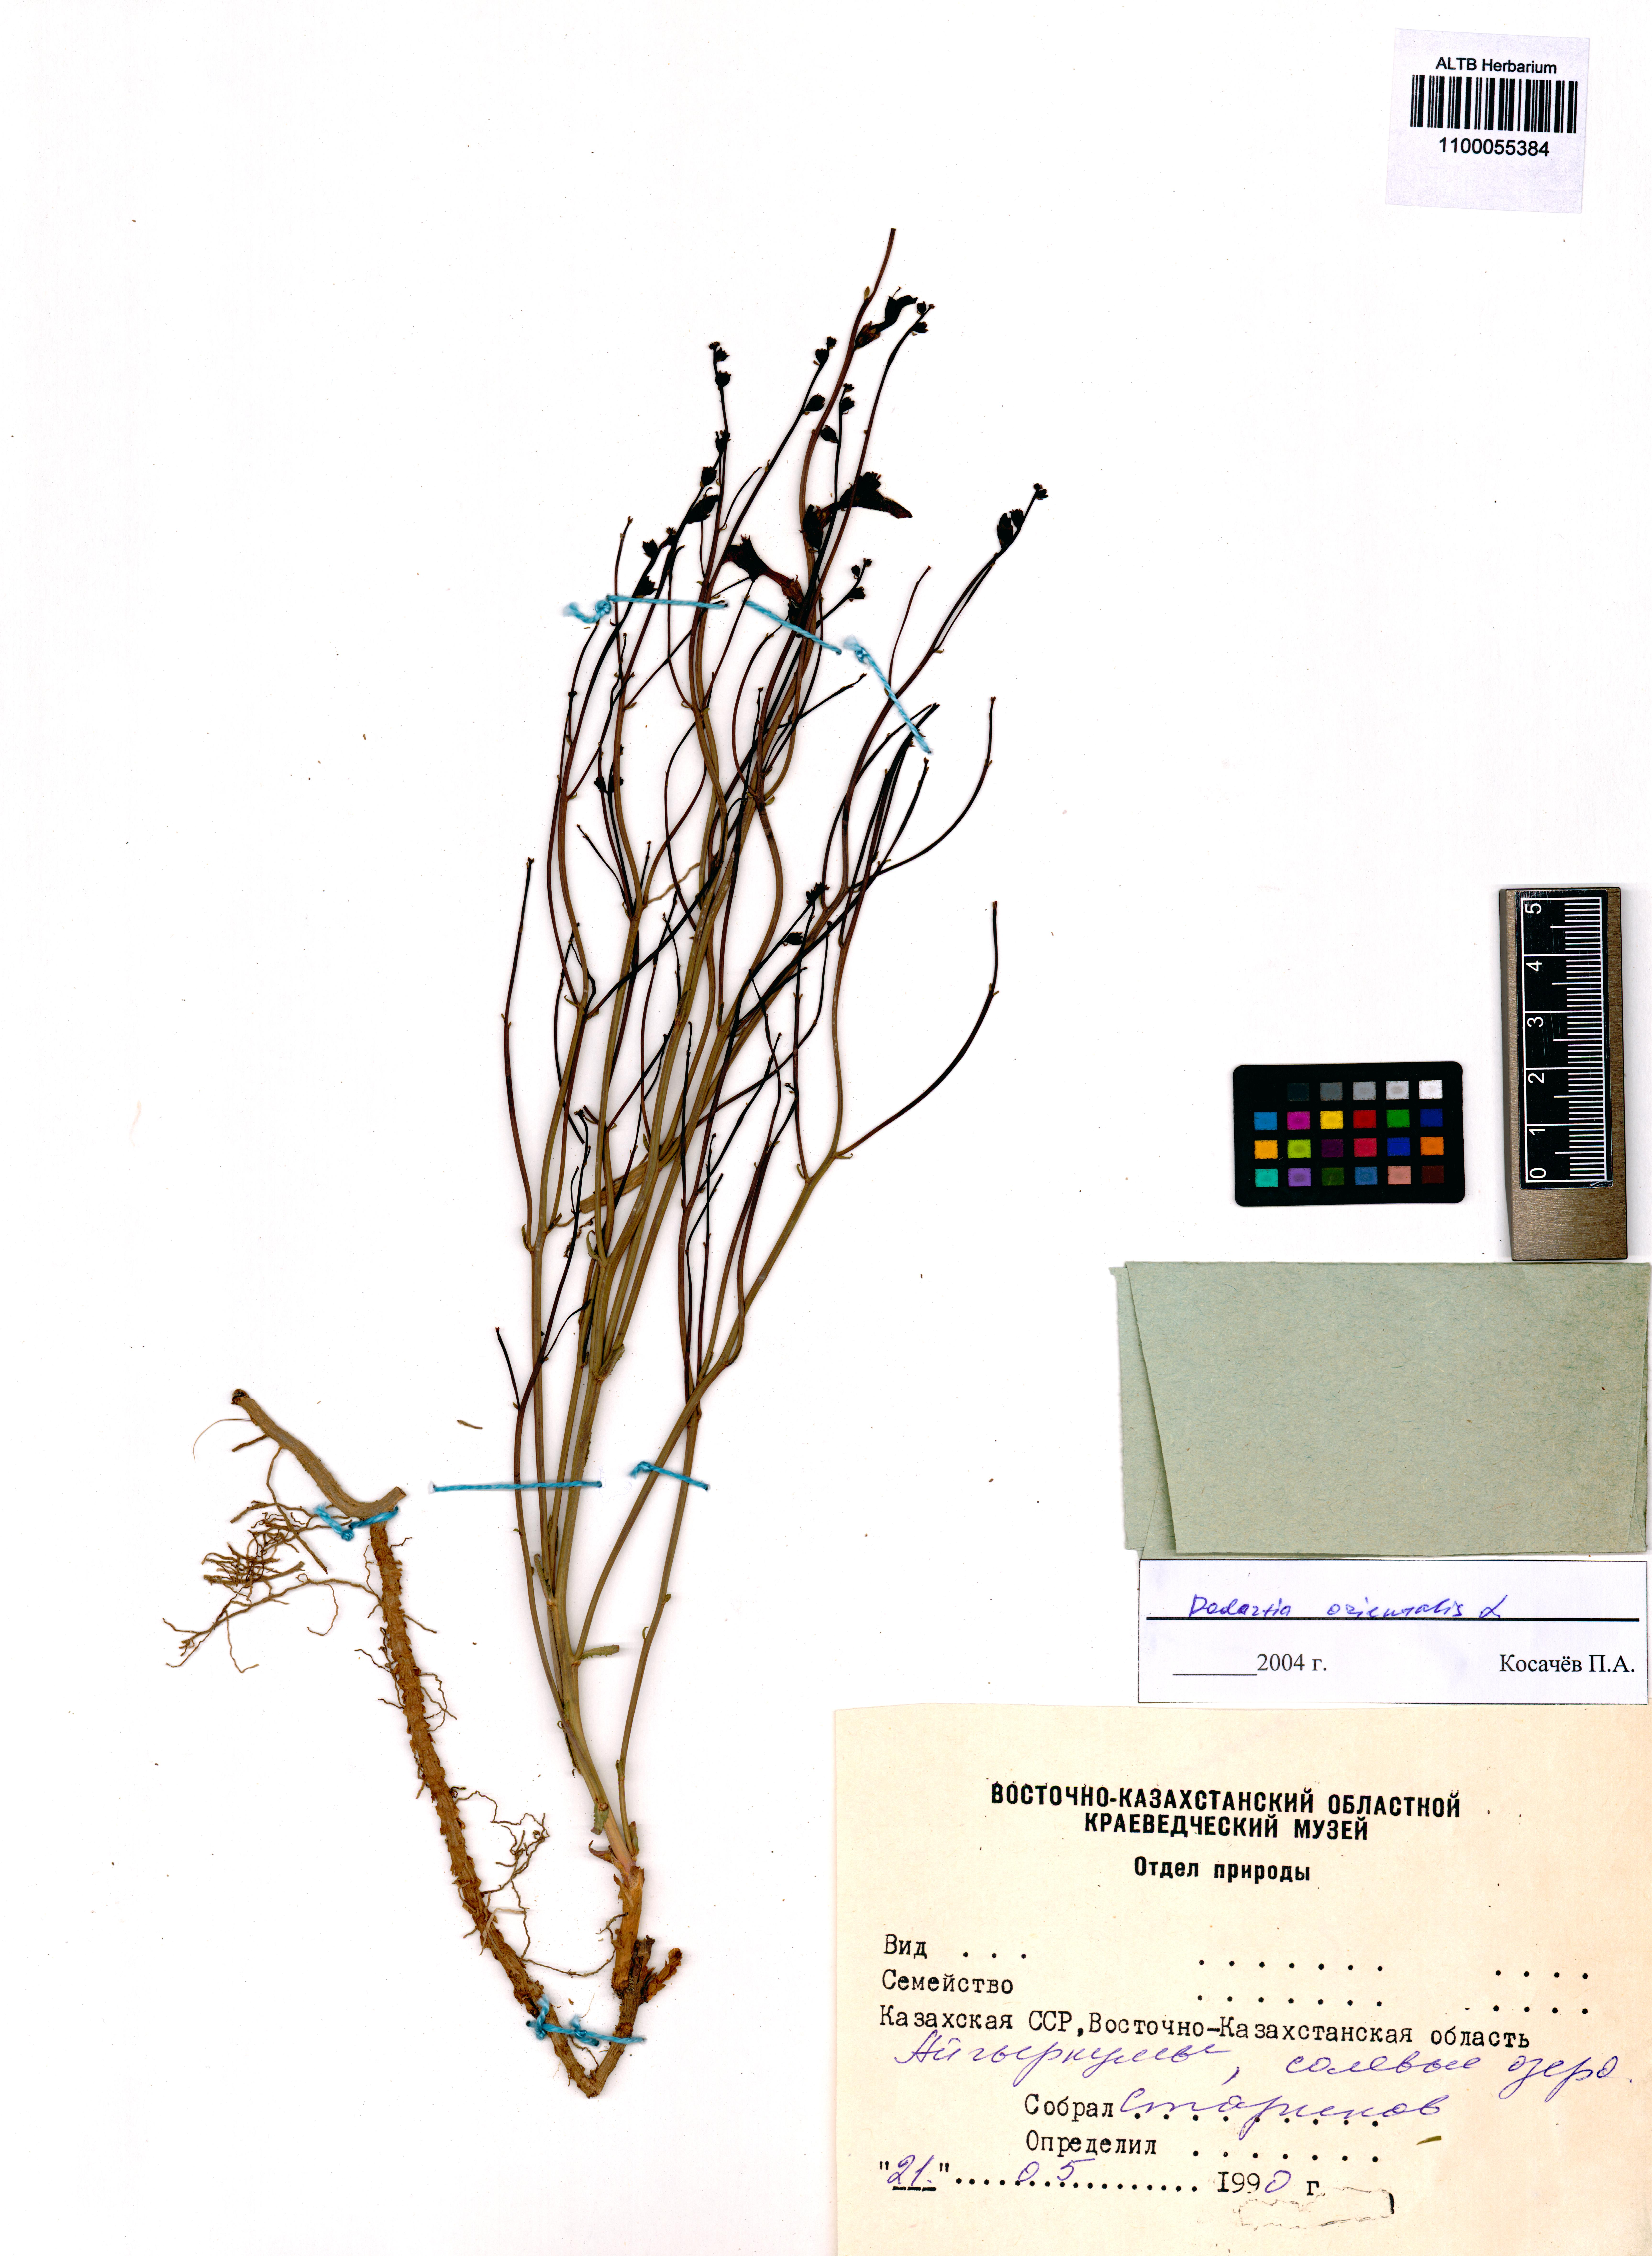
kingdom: Plantae
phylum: Tracheophyta
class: Magnoliopsida
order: Lamiales
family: Mazaceae
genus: Dodartia
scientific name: Dodartia orientalis
